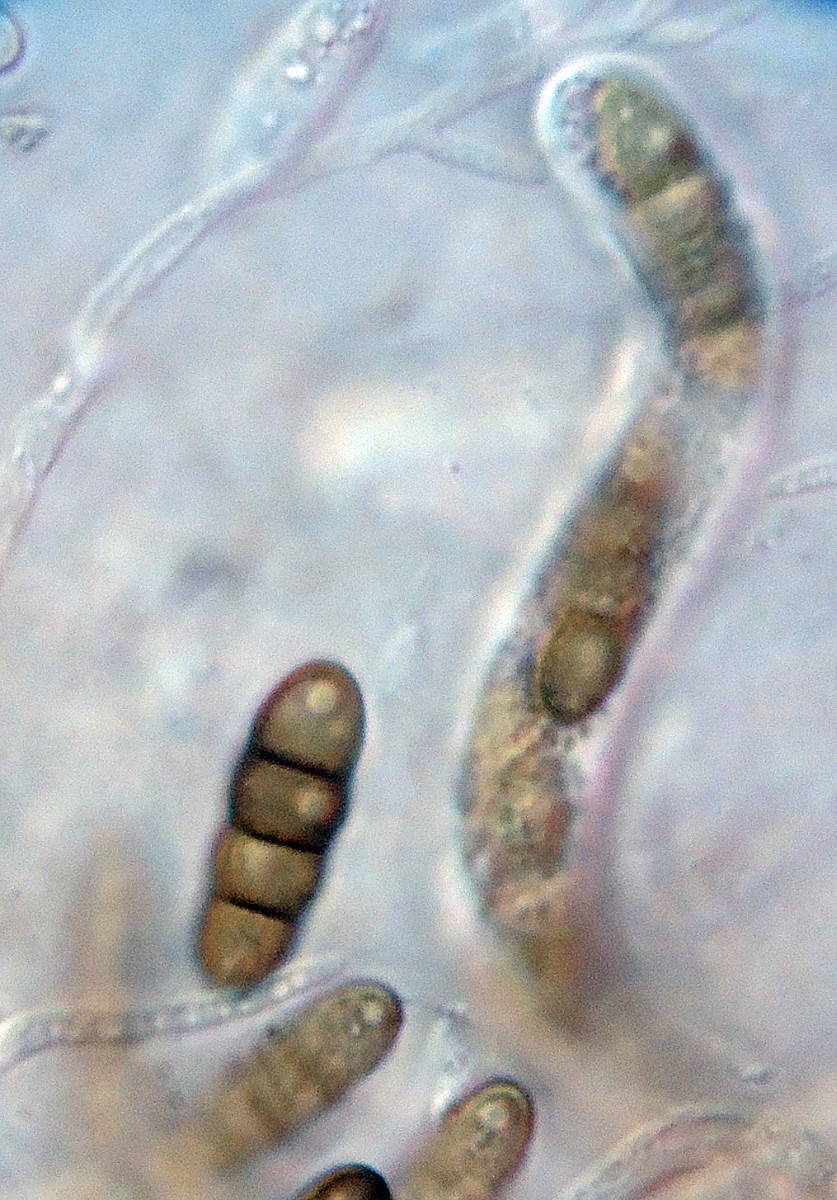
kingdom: Fungi
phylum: Ascomycota
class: Dothideomycetes
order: Pleosporales
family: Cyclothyriellaceae
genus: Cyclothyriella
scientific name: Cyclothyriella rubronotata
